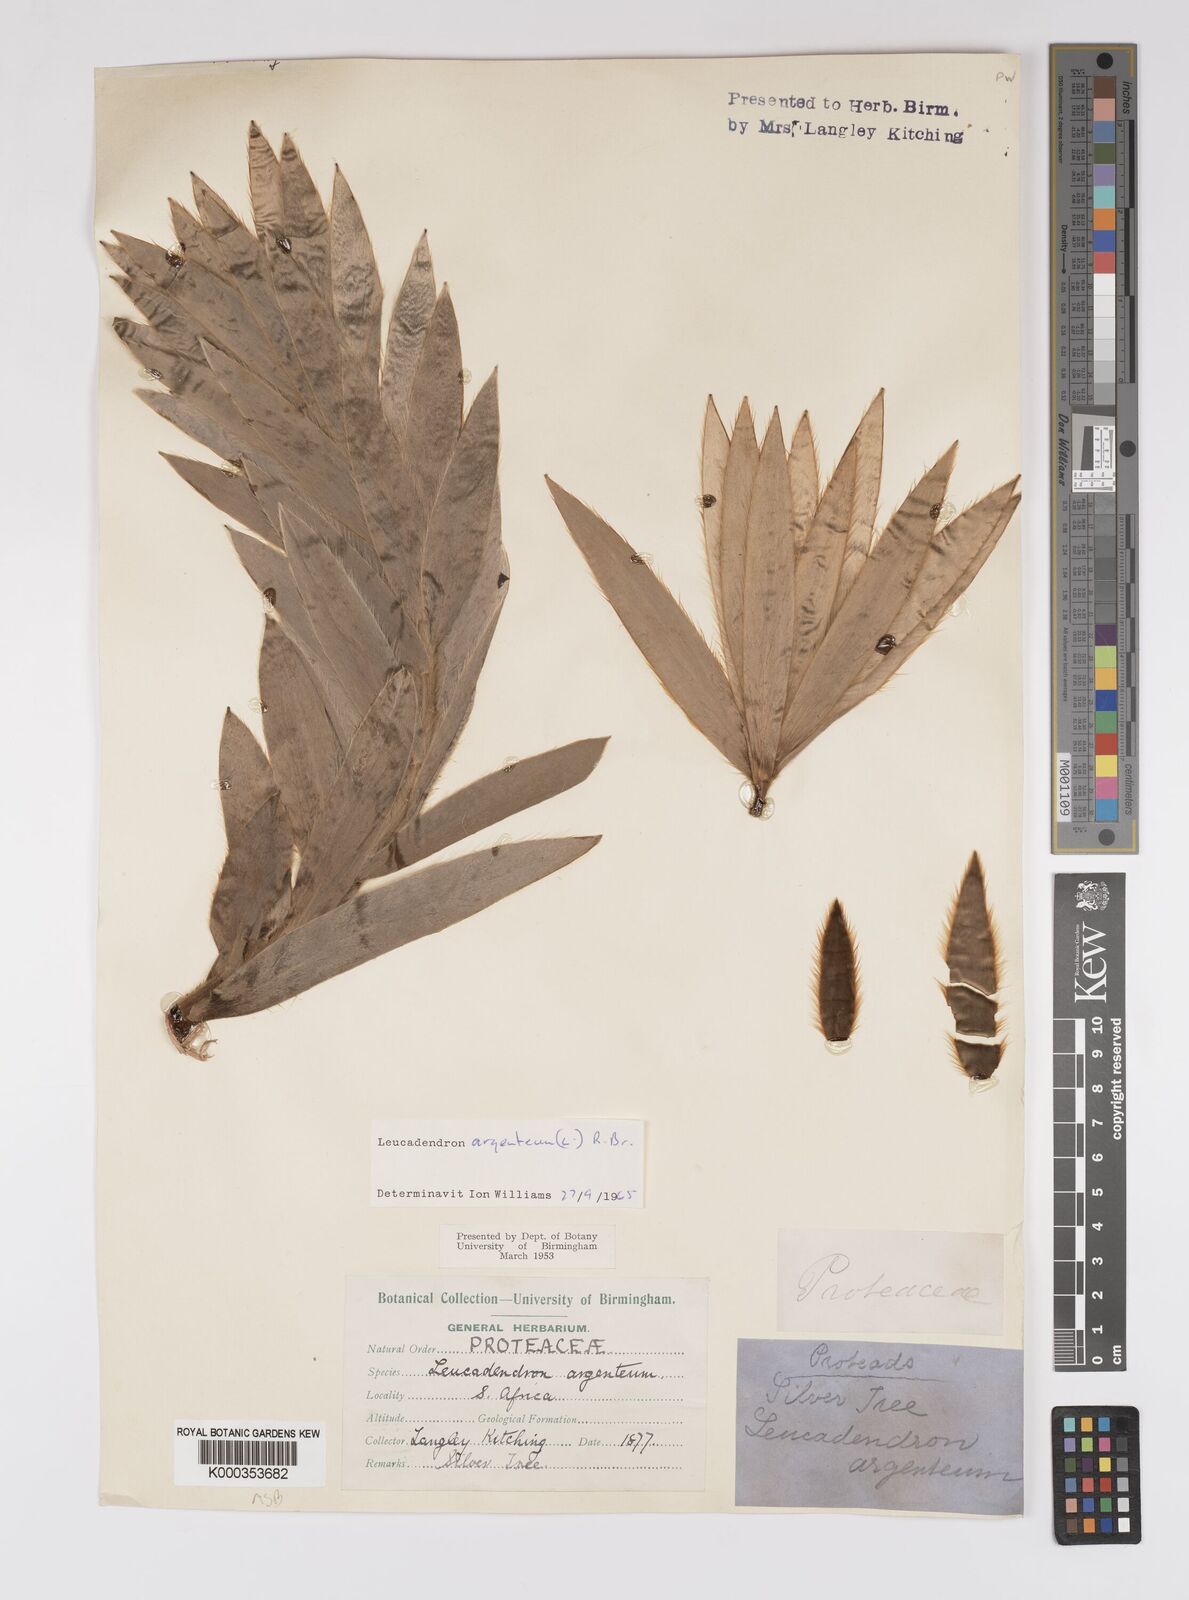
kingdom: Plantae
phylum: Tracheophyta
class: Magnoliopsida
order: Proteales
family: Proteaceae
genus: Leucadendron
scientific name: Leucadendron argenteum
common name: Cape silver tree
